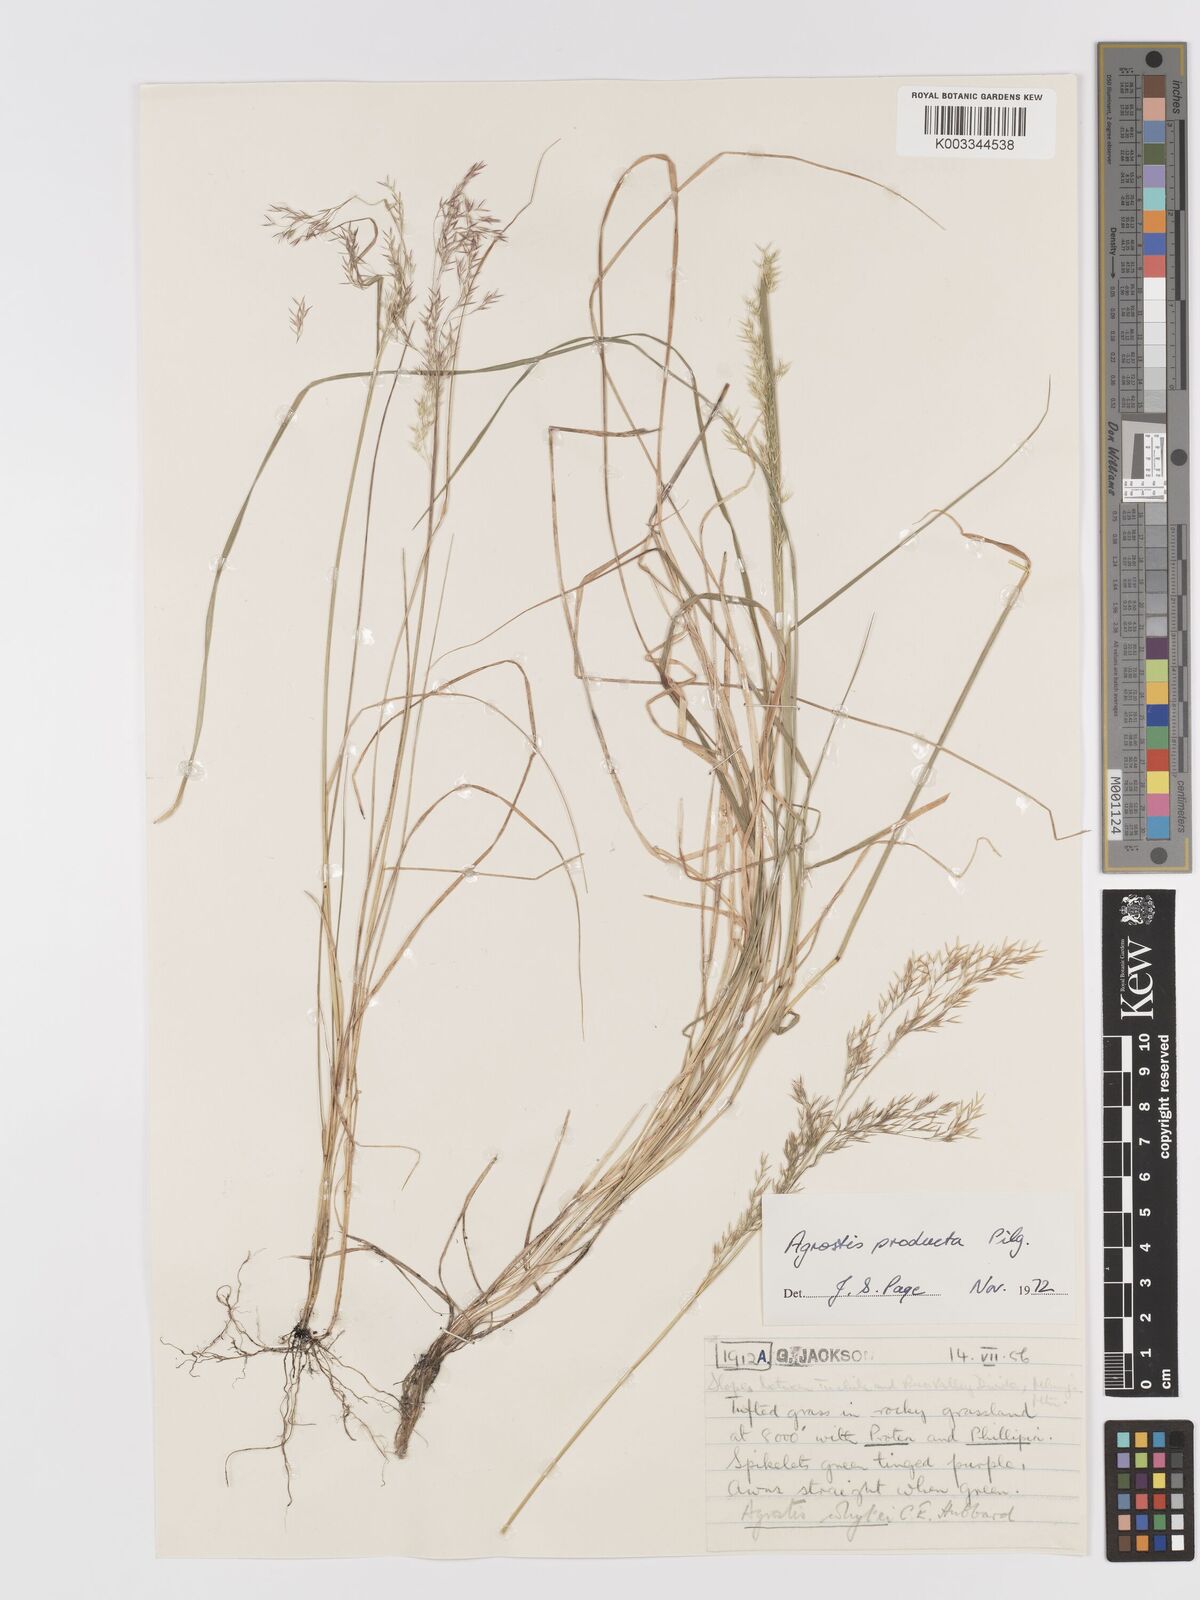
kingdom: Plantae
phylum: Tracheophyta
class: Liliopsida
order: Poales
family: Poaceae
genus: Agrostis
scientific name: Agrostis producta
